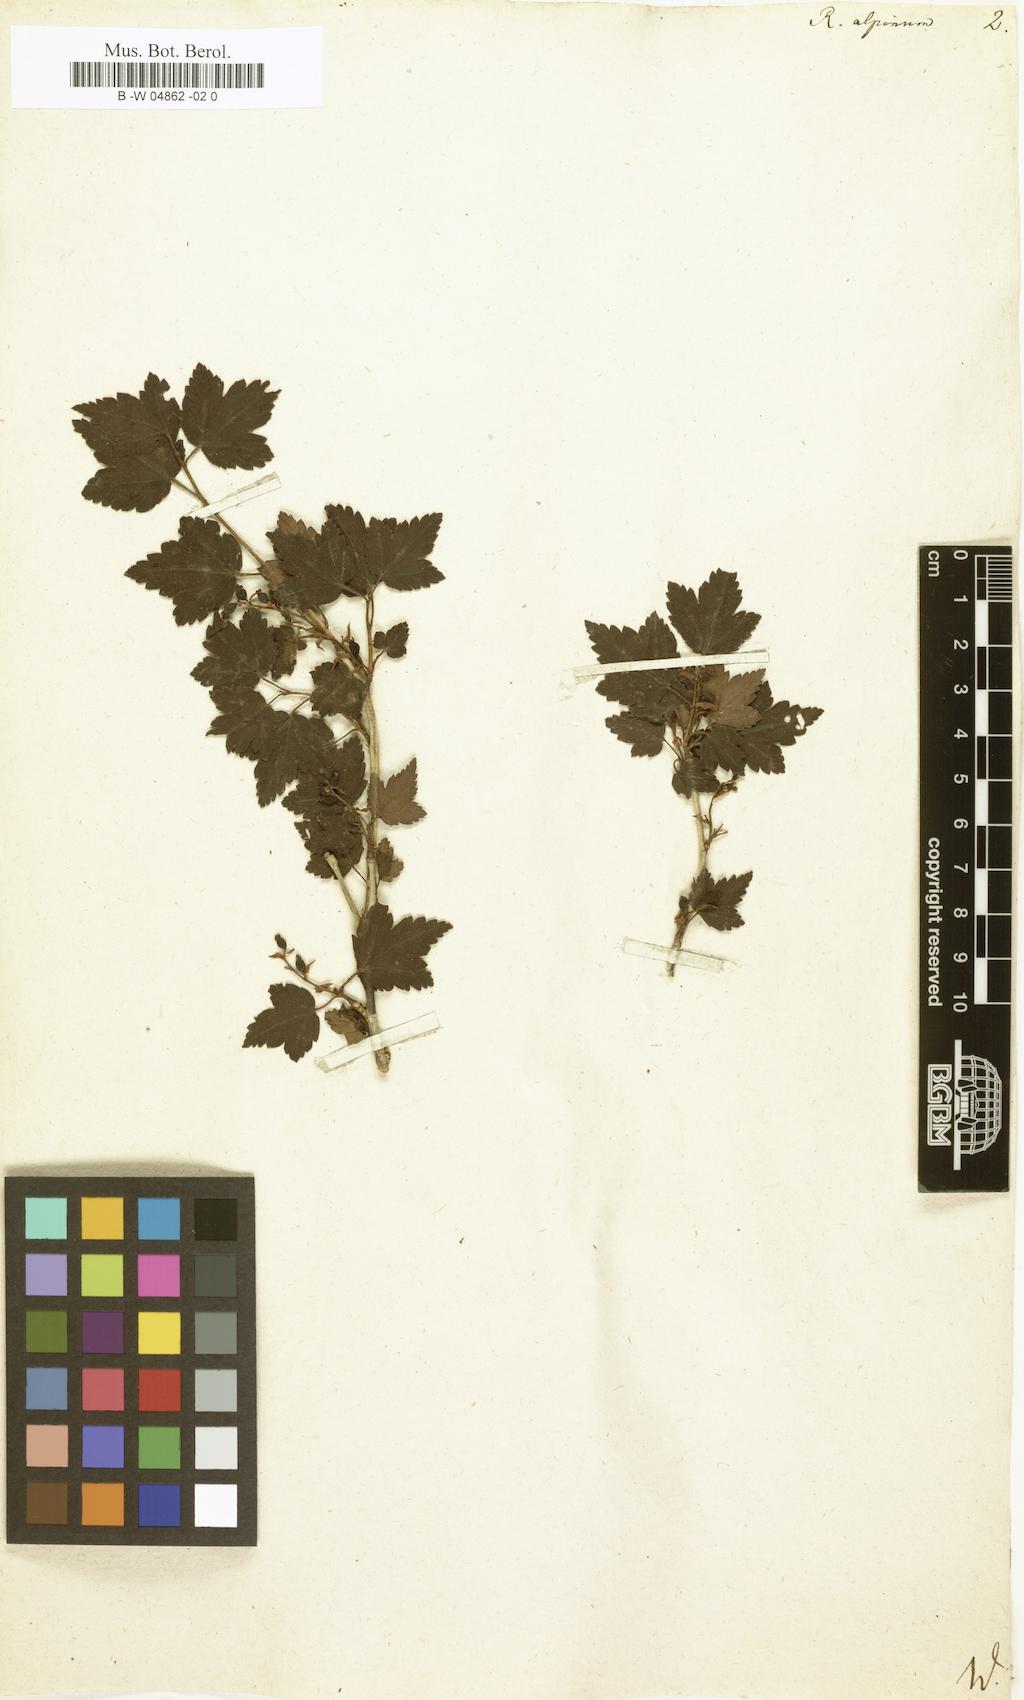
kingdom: Plantae
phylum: Tracheophyta
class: Magnoliopsida
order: Saxifragales
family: Grossulariaceae
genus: Ribes
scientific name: Ribes alpinum
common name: Alpine currant
